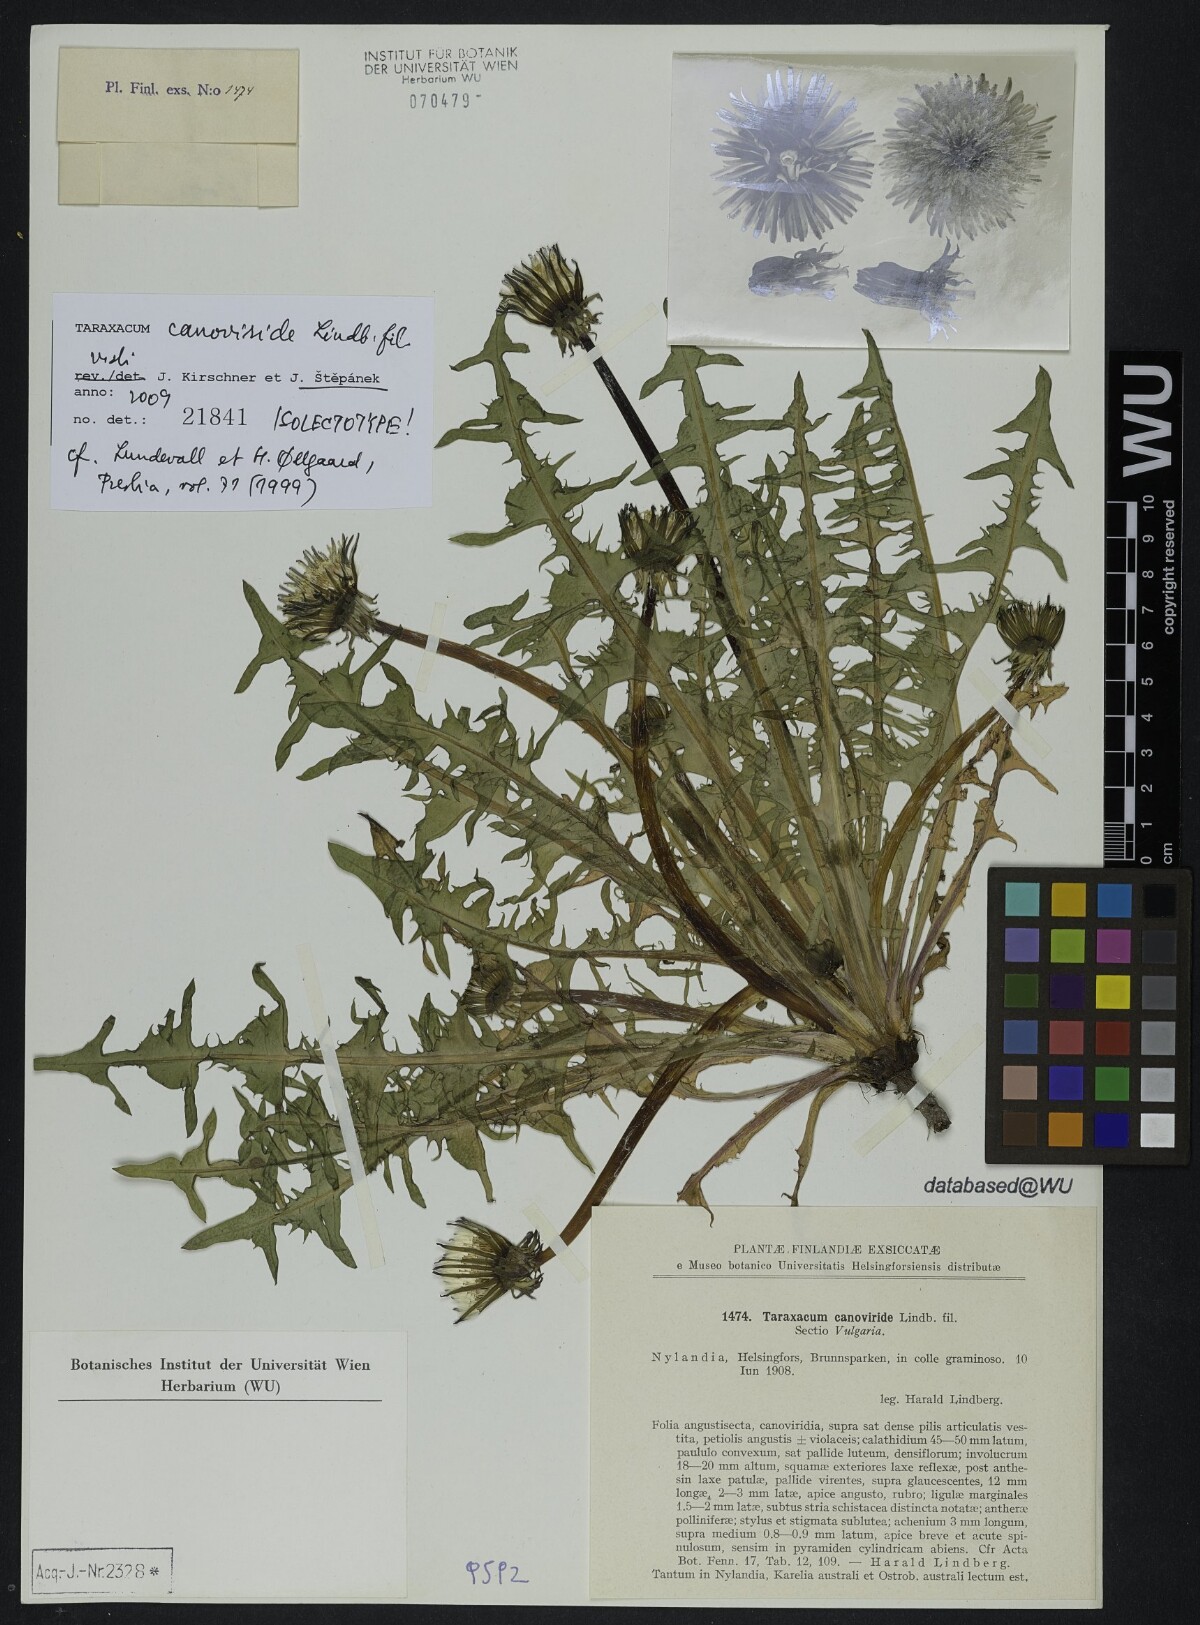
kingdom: Plantae
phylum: Tracheophyta
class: Magnoliopsida
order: Asterales
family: Asteraceae
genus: Taraxacum
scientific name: Taraxacum canoviride
